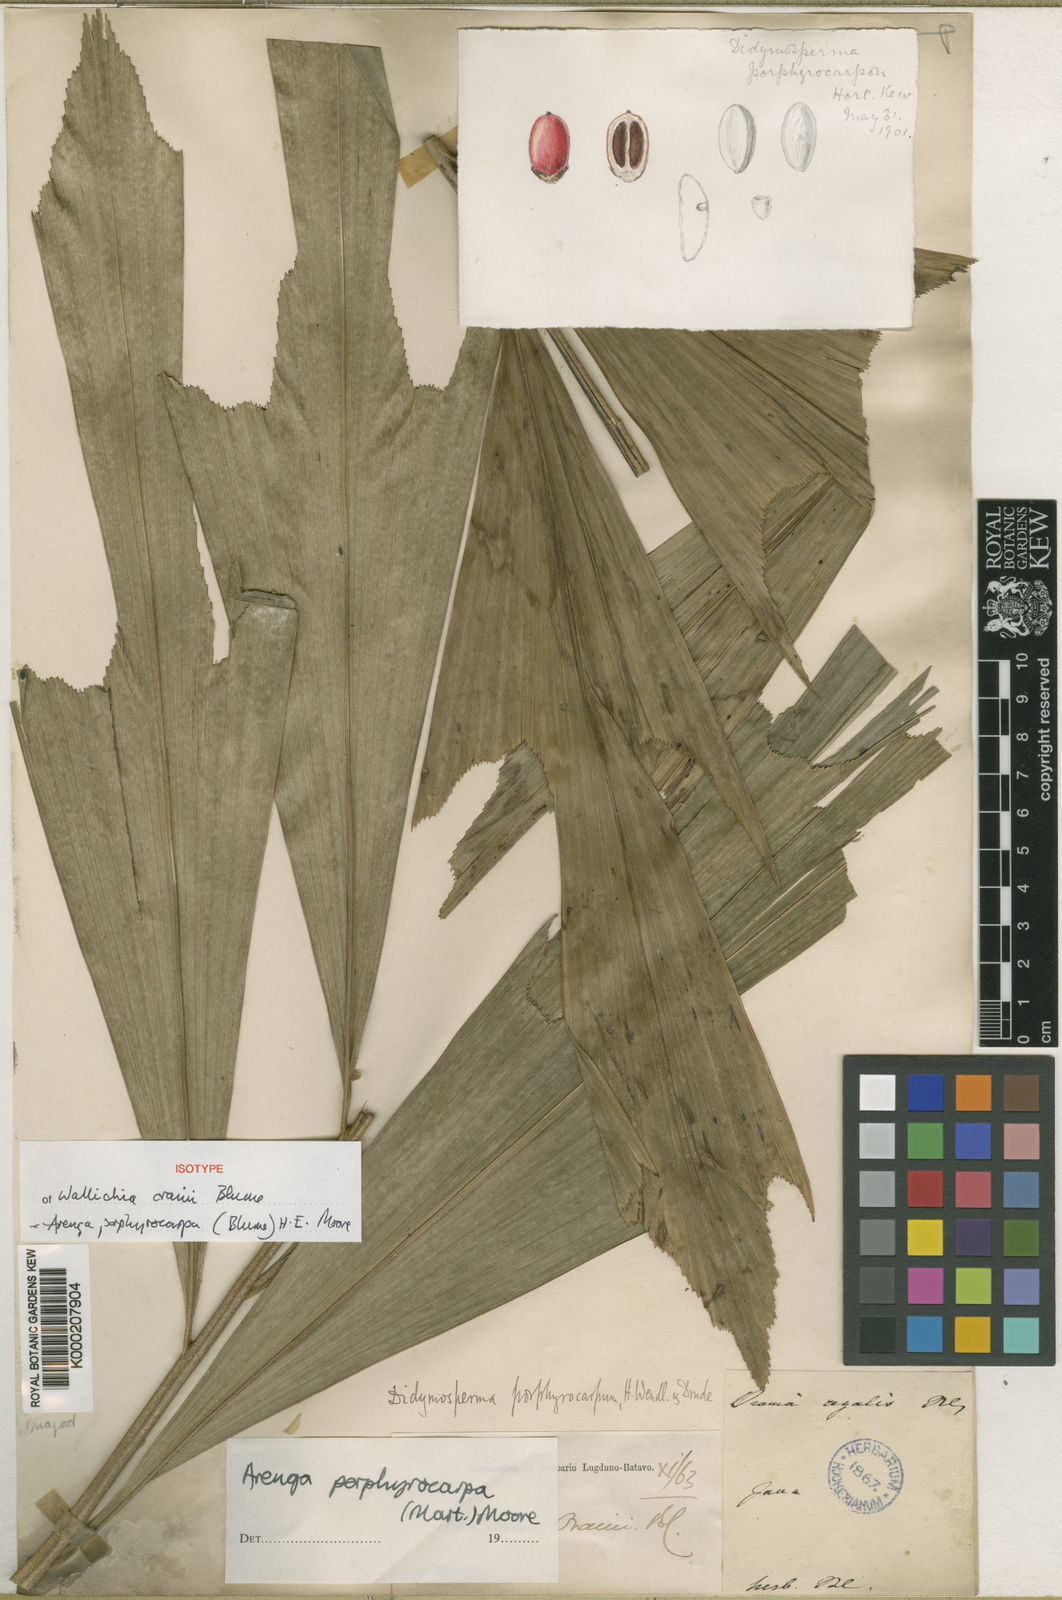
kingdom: Plantae
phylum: Tracheophyta
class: Liliopsida
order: Arecales
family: Arecaceae
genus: Arenga
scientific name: Arenga porphyrocarpa
